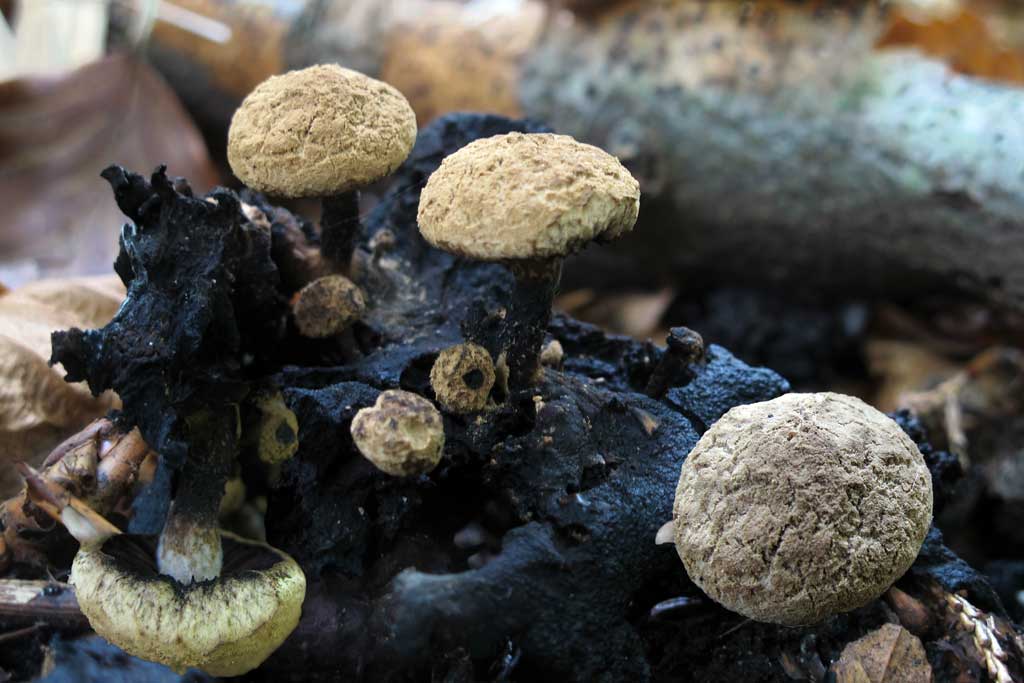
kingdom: Fungi
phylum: Basidiomycota
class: Agaricomycetes
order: Agaricales
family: Lyophyllaceae
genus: Asterophora
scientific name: Asterophora lycoperdoides
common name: brunpudret snyltehat
